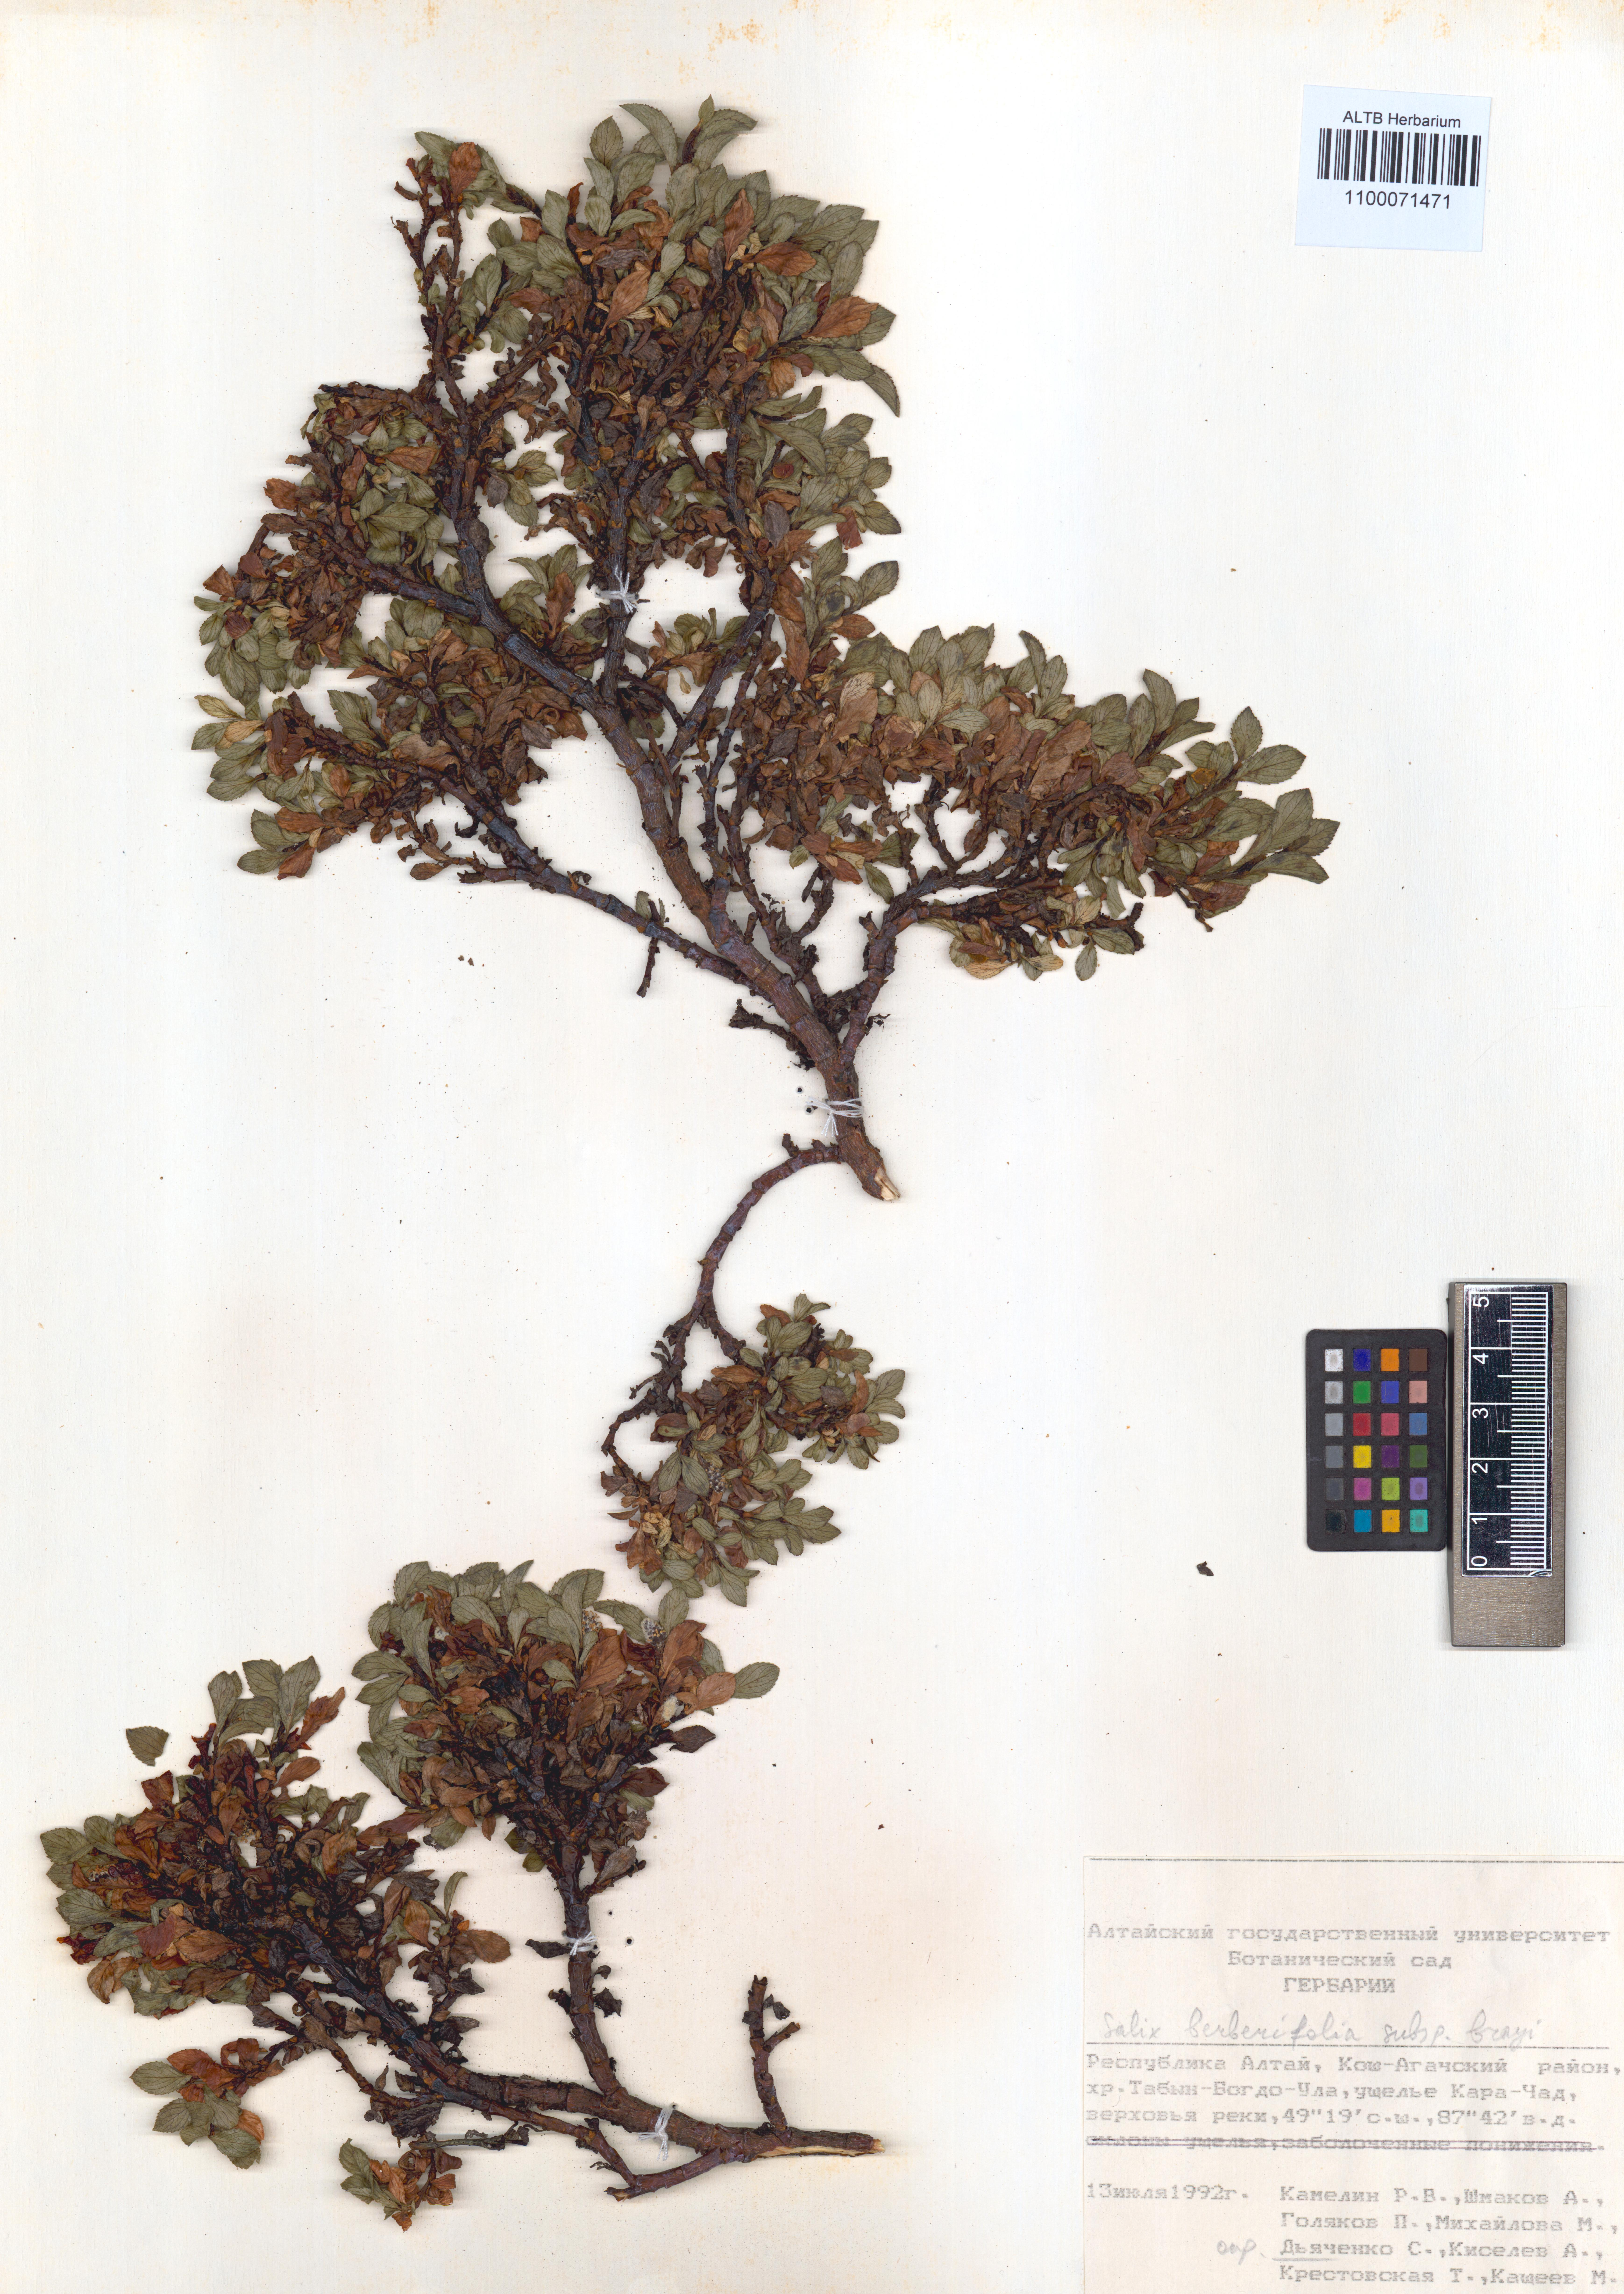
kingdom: Plantae
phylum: Tracheophyta
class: Magnoliopsida
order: Malpighiales
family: Salicaceae
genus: Salix
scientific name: Salix berberifolia
